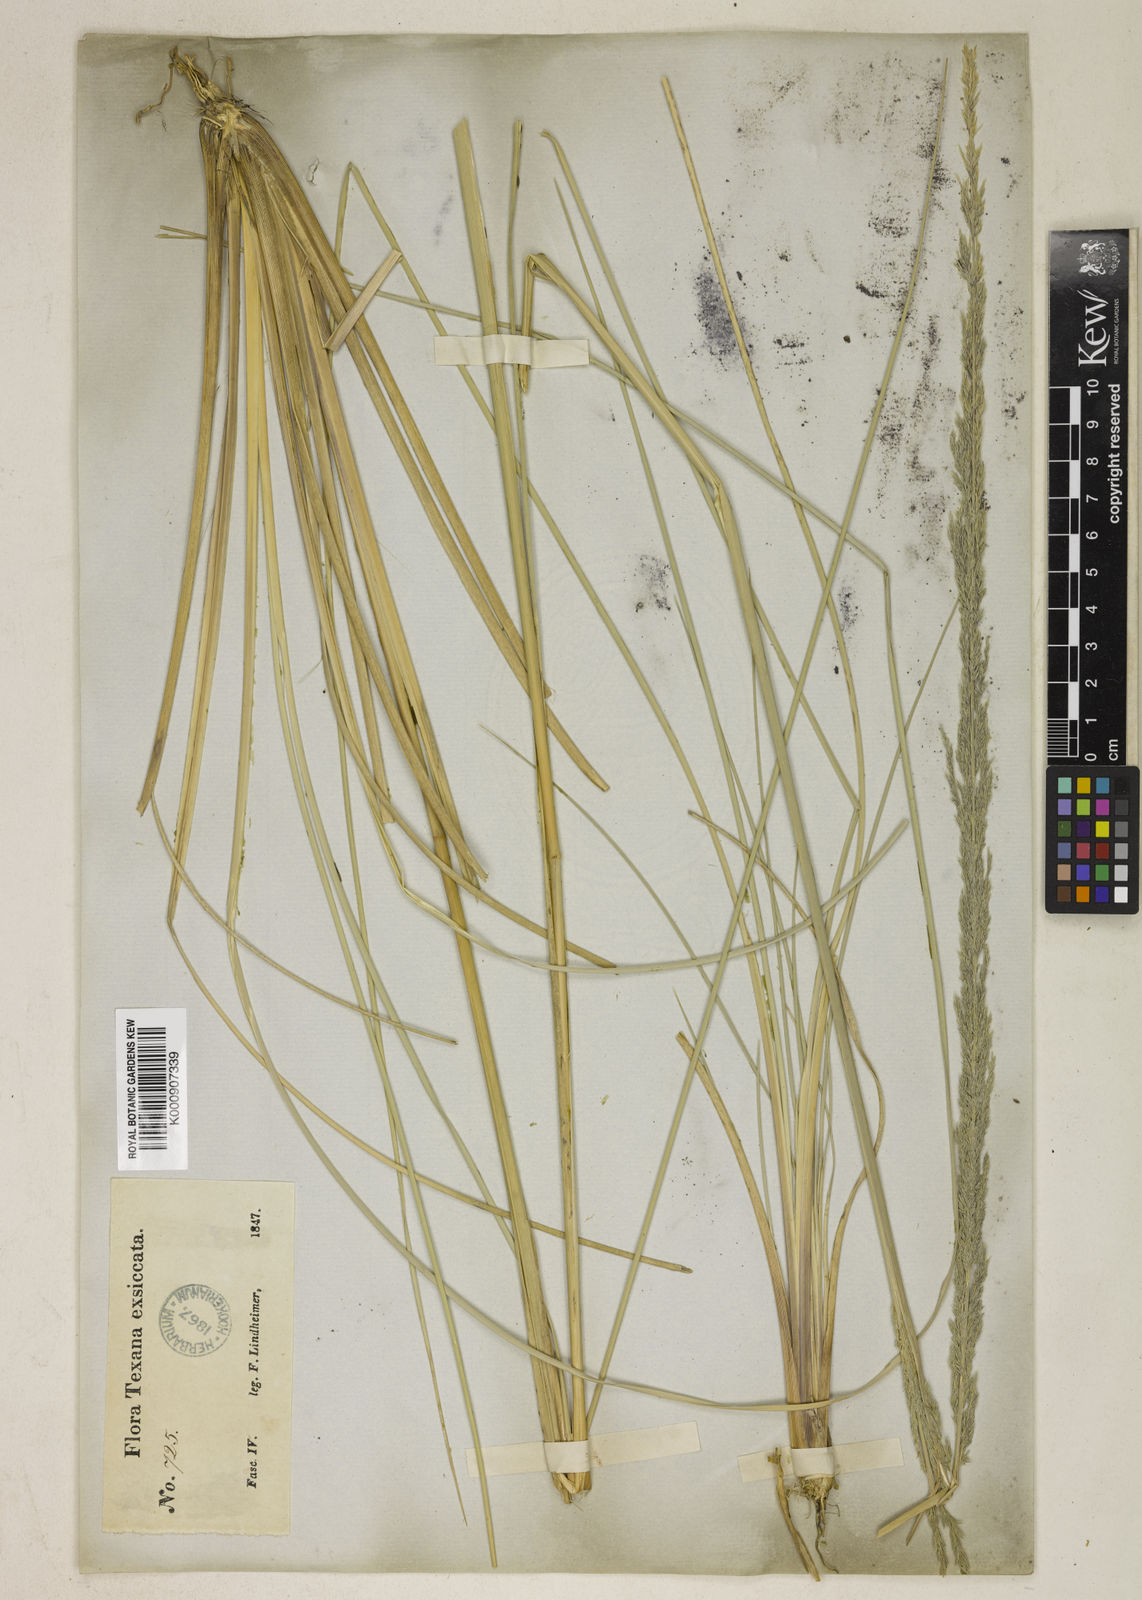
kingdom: Plantae
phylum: Tracheophyta
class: Liliopsida
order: Poales
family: Poaceae
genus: Muhlenbergia
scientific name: Muhlenbergia lindheimeri
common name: Lindheimer's muhly
